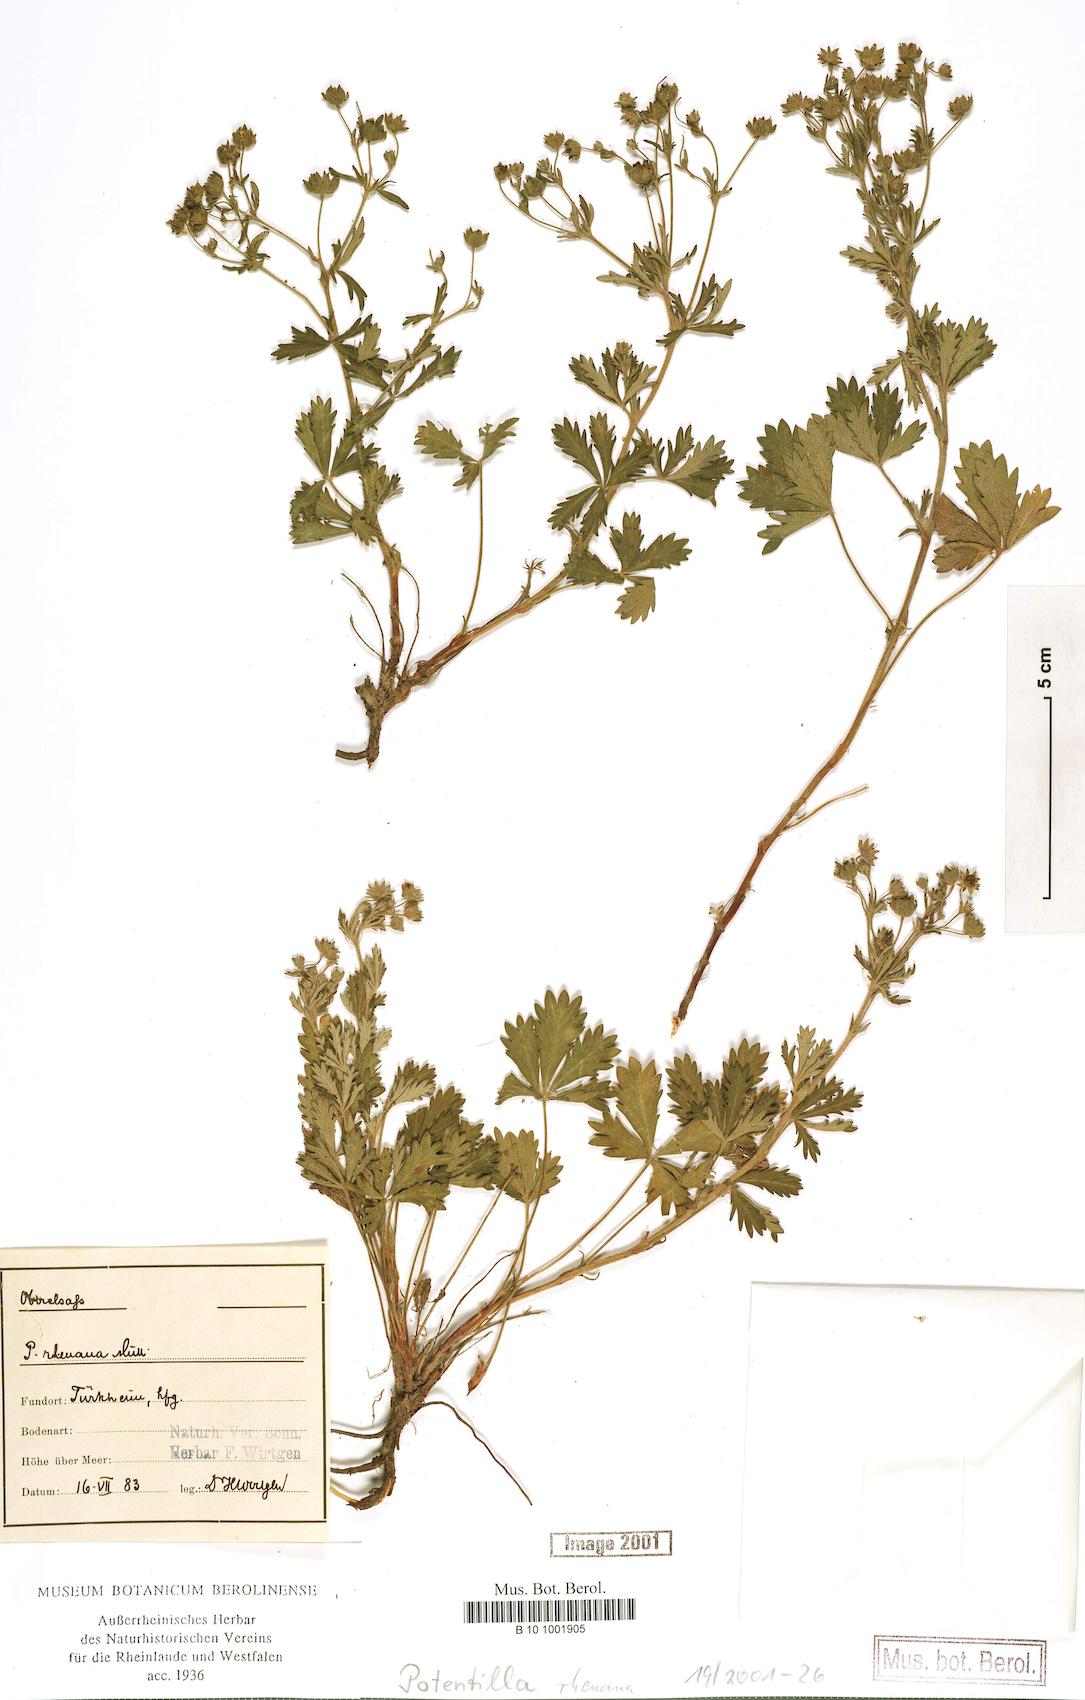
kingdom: Plantae
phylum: Tracheophyta
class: Magnoliopsida
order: Rosales
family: Rosaceae
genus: Potentilla
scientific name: Potentilla rhenana
